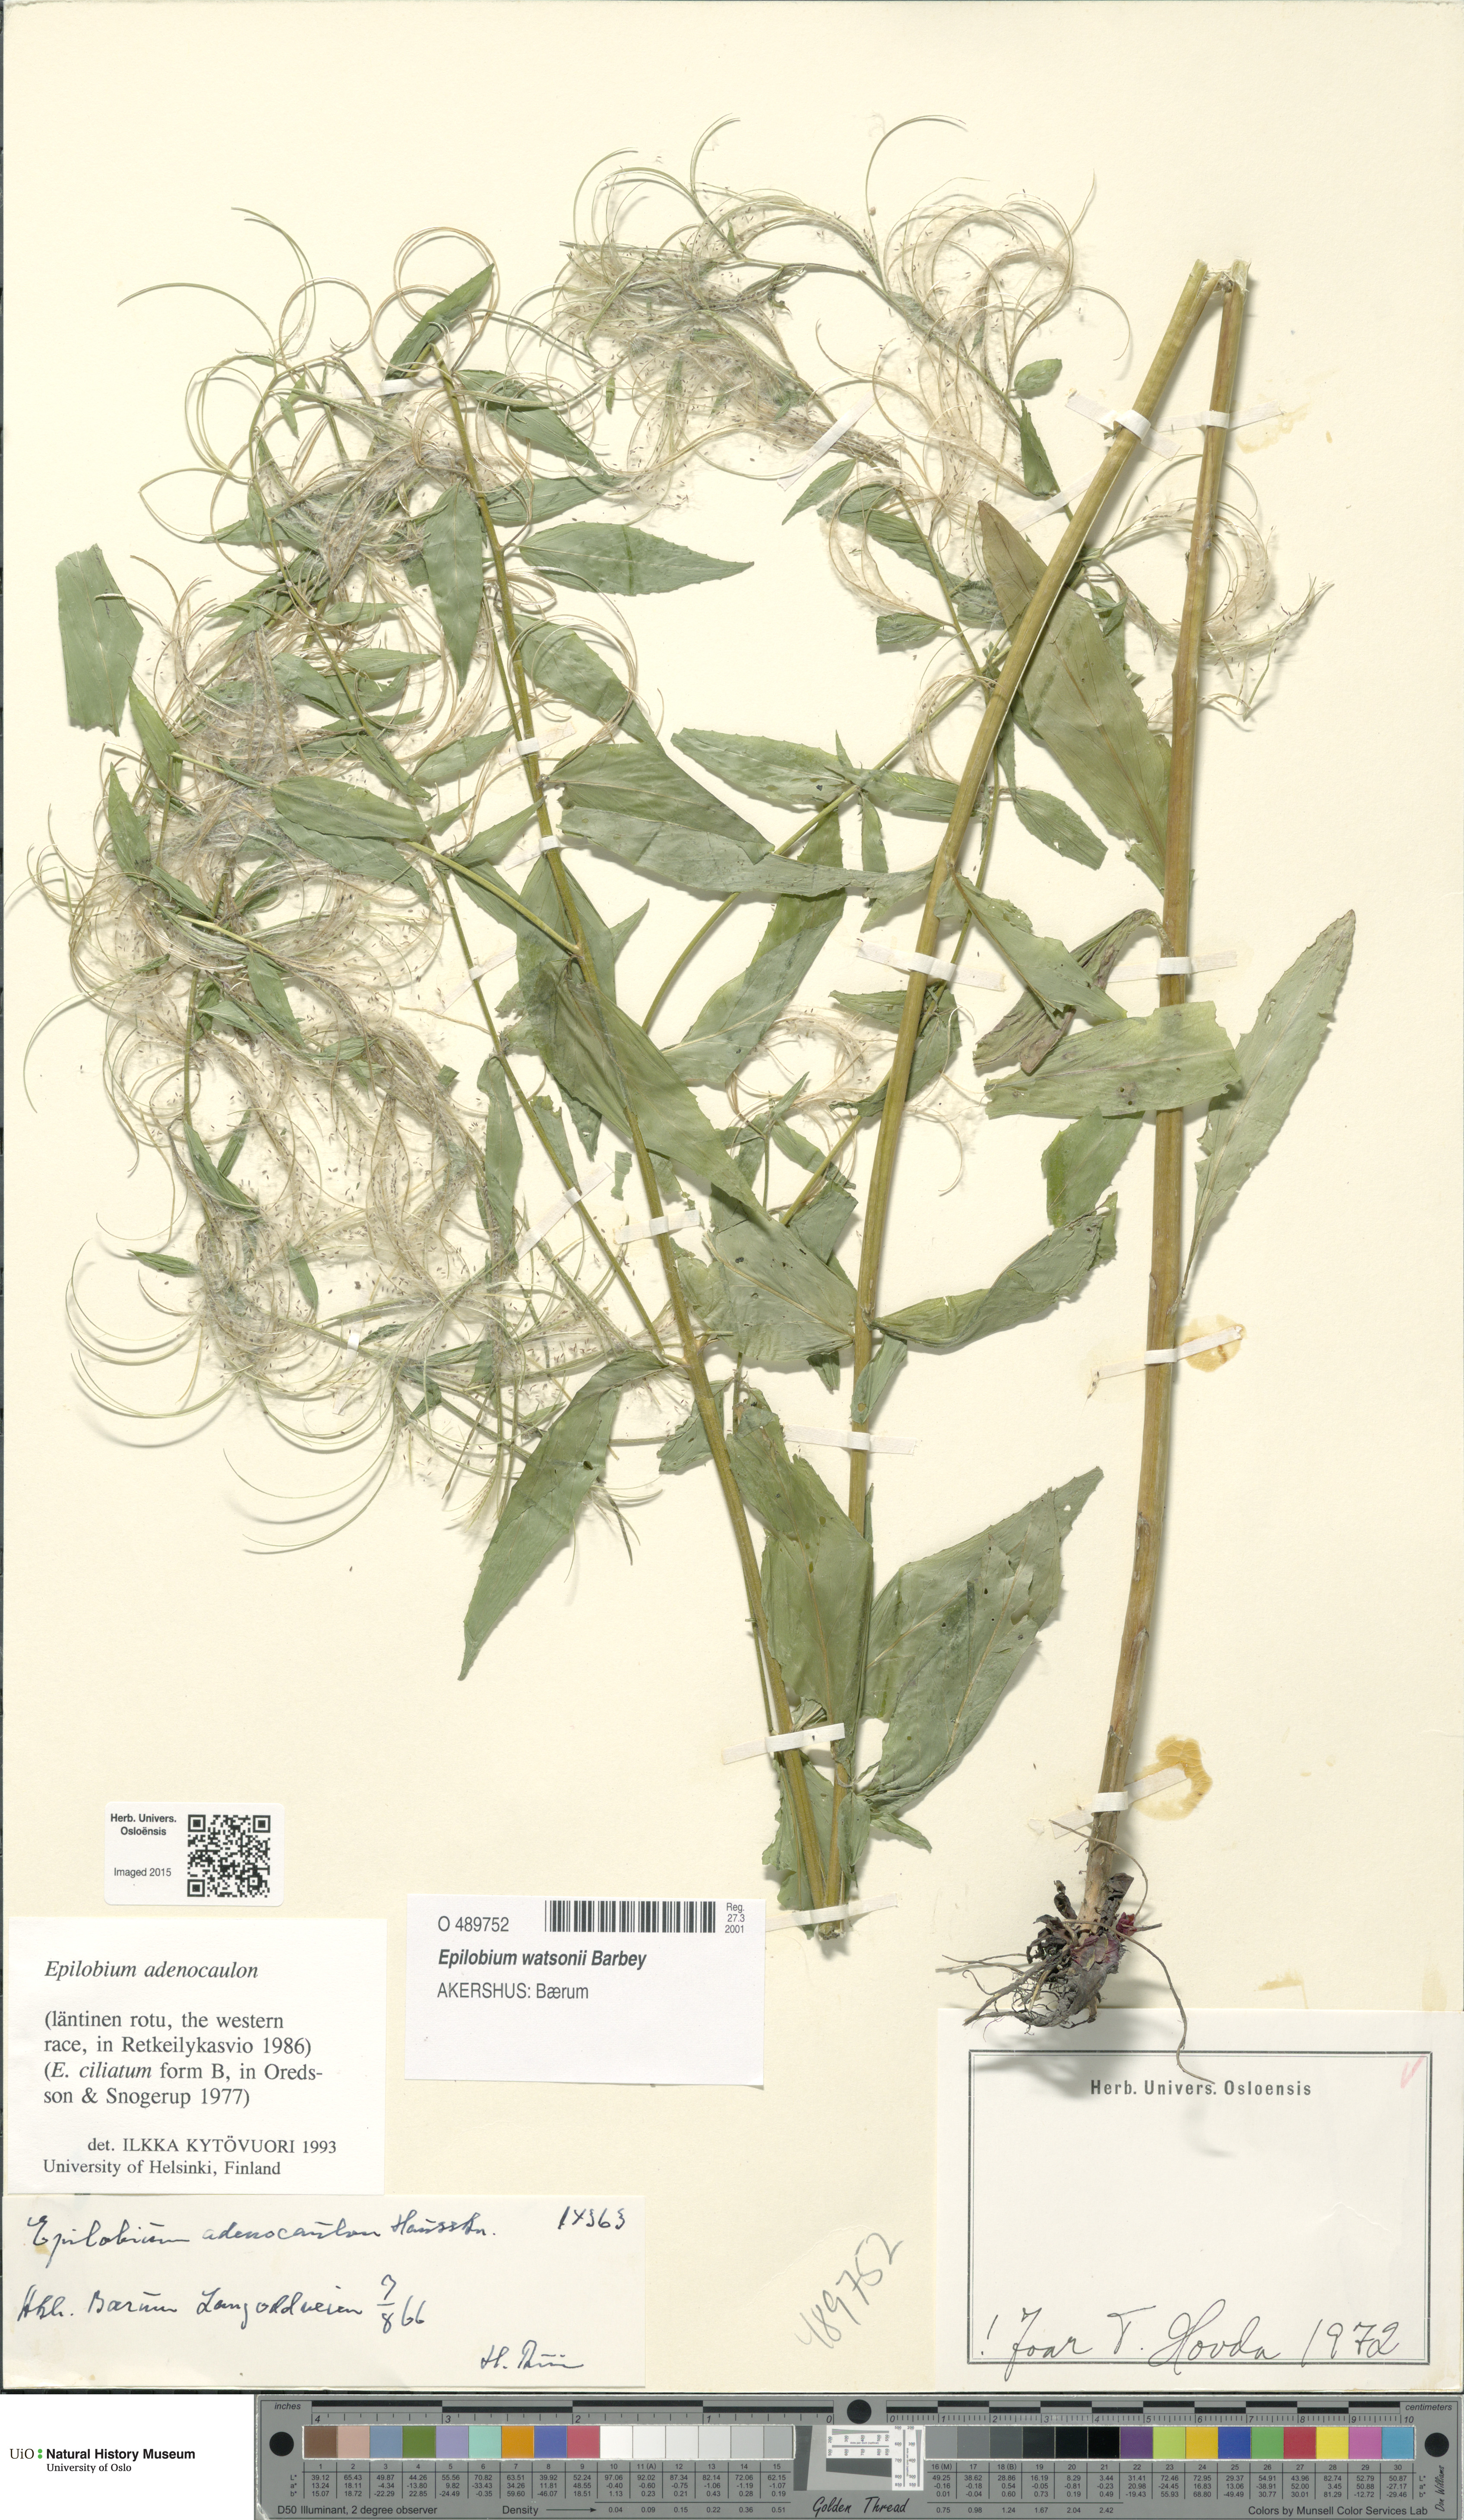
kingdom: Plantae
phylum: Tracheophyta
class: Magnoliopsida
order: Myrtales
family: Onagraceae
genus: Epilobium
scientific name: Epilobium ciliatum
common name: American willowherb
